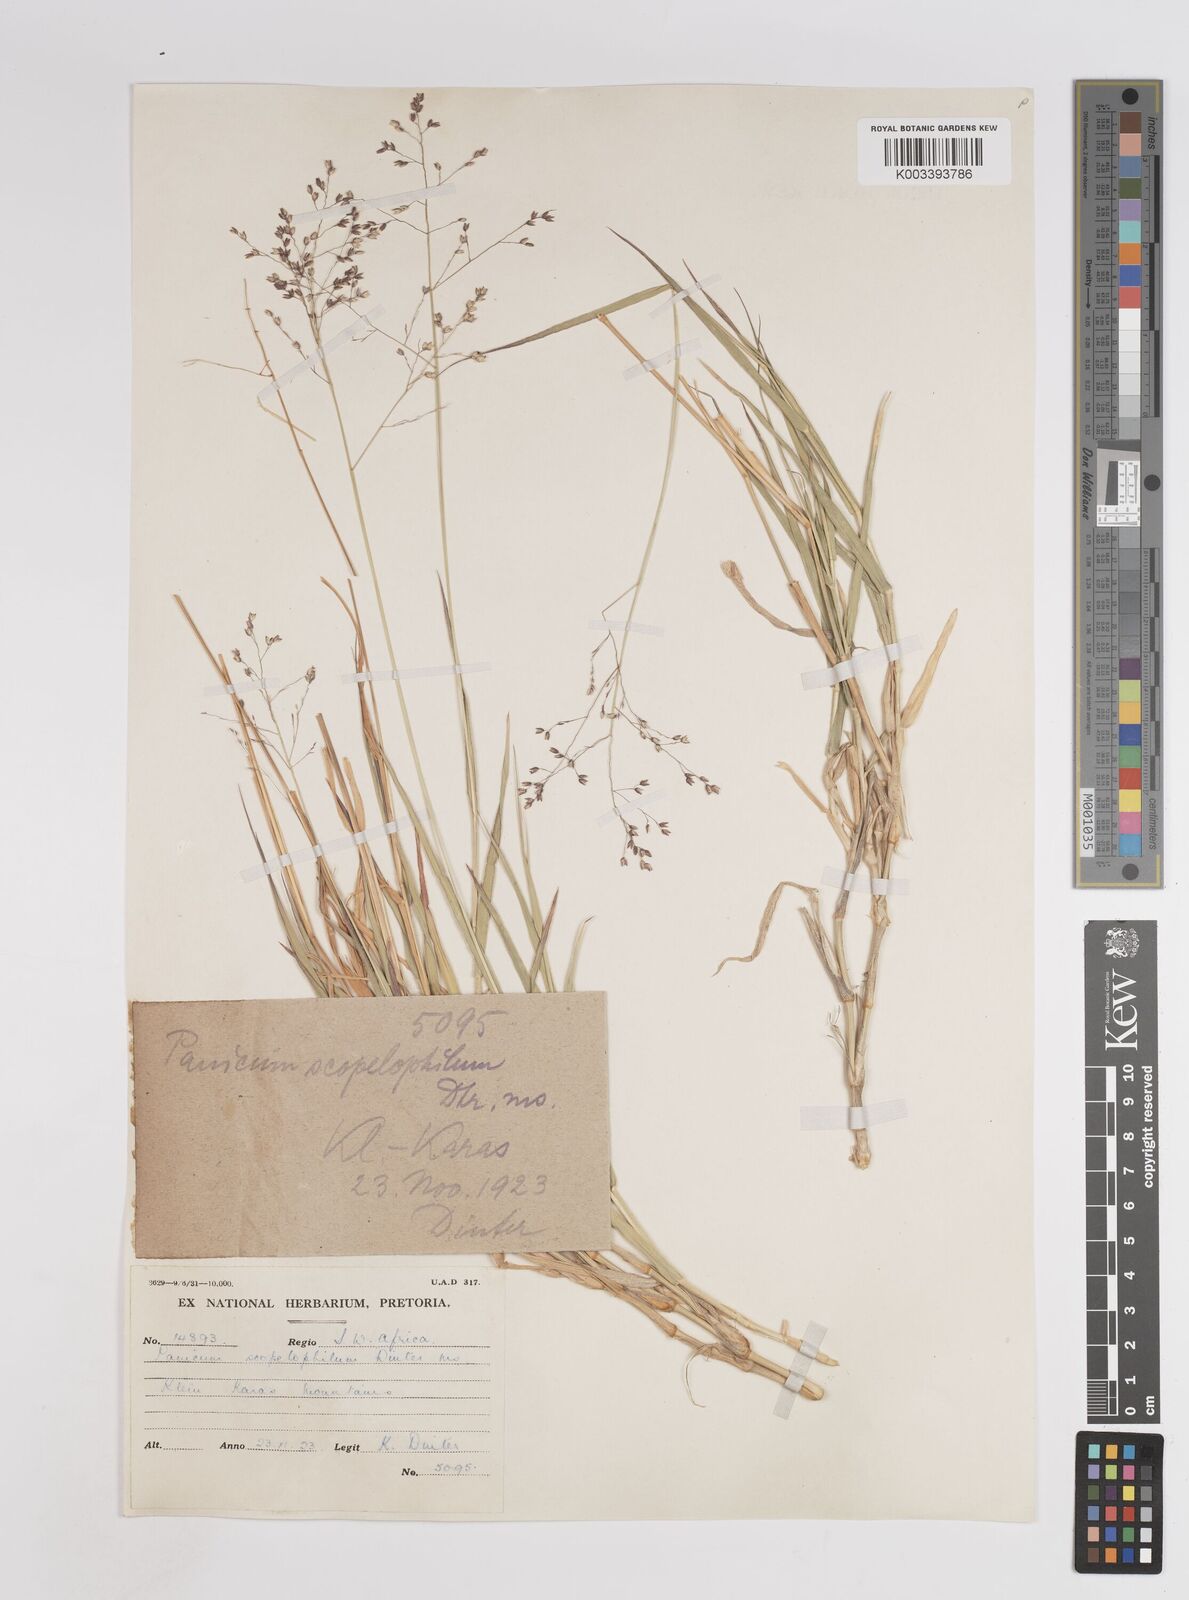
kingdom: Plantae
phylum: Tracheophyta
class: Liliopsida
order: Poales
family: Poaceae
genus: Panicum
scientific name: Panicum arbusculum
